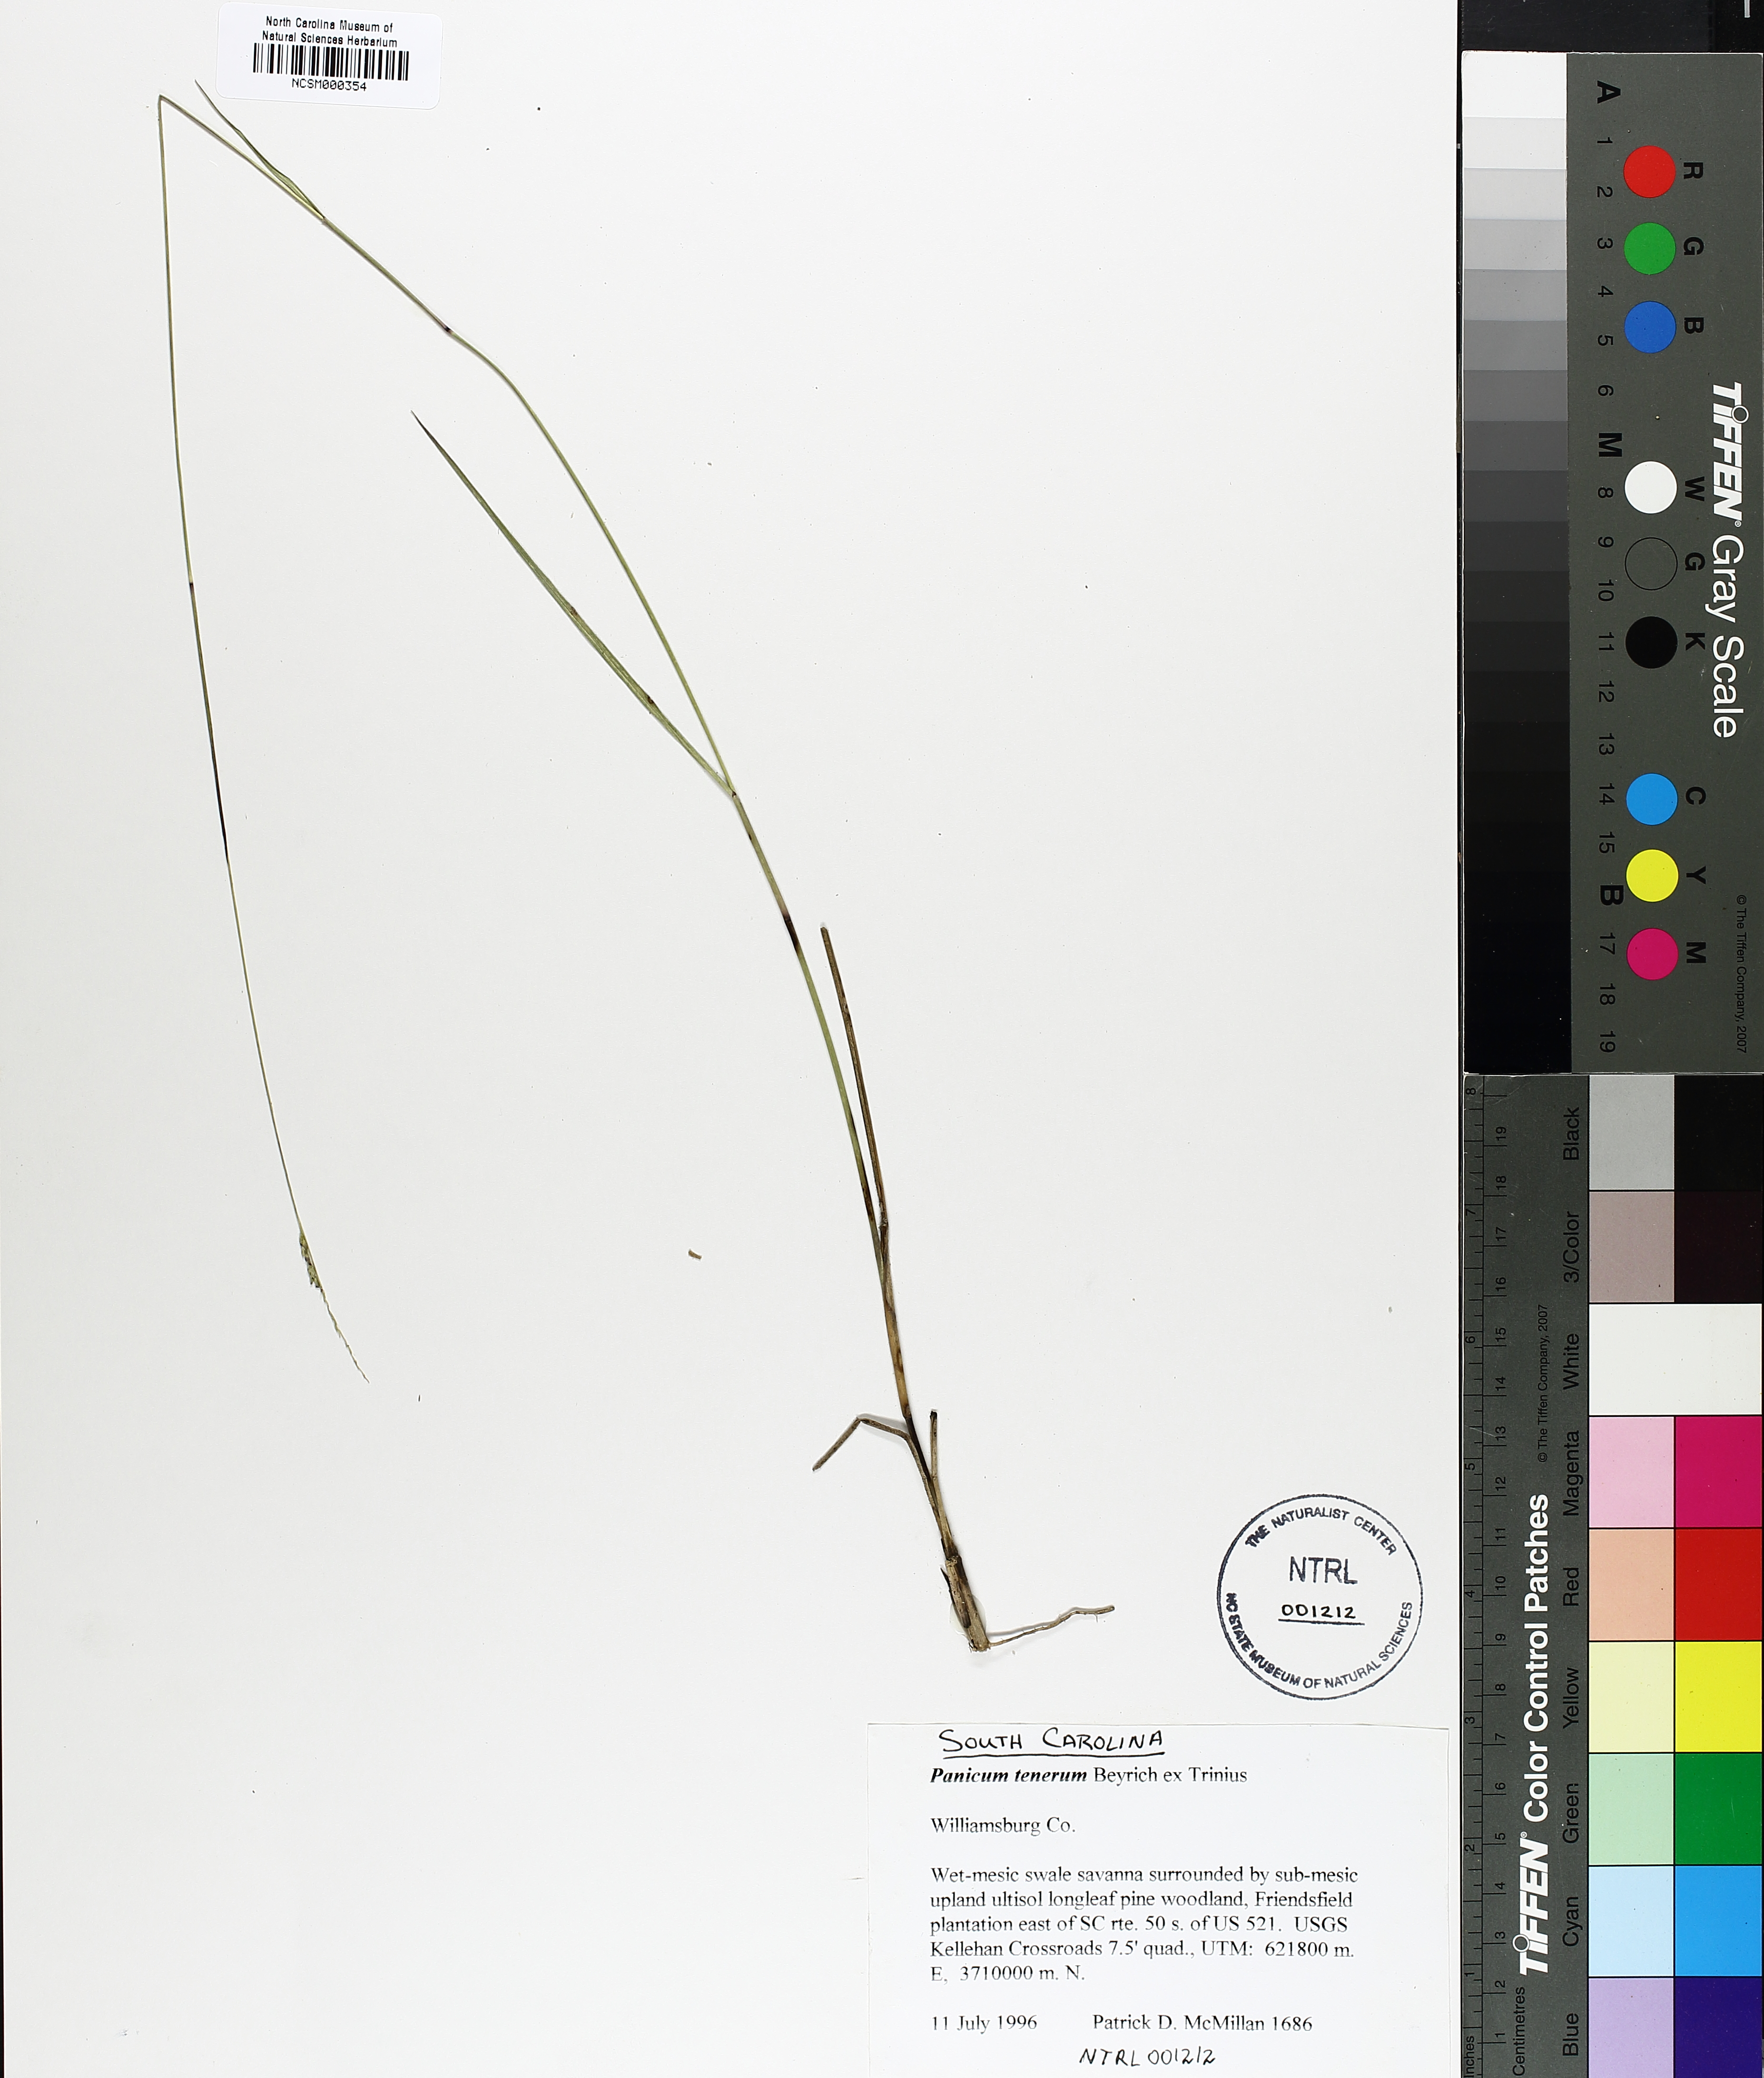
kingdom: Plantae
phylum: Tracheophyta
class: Liliopsida
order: Poales
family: Poaceae
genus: Coleataenia
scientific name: Coleataenia tenera
